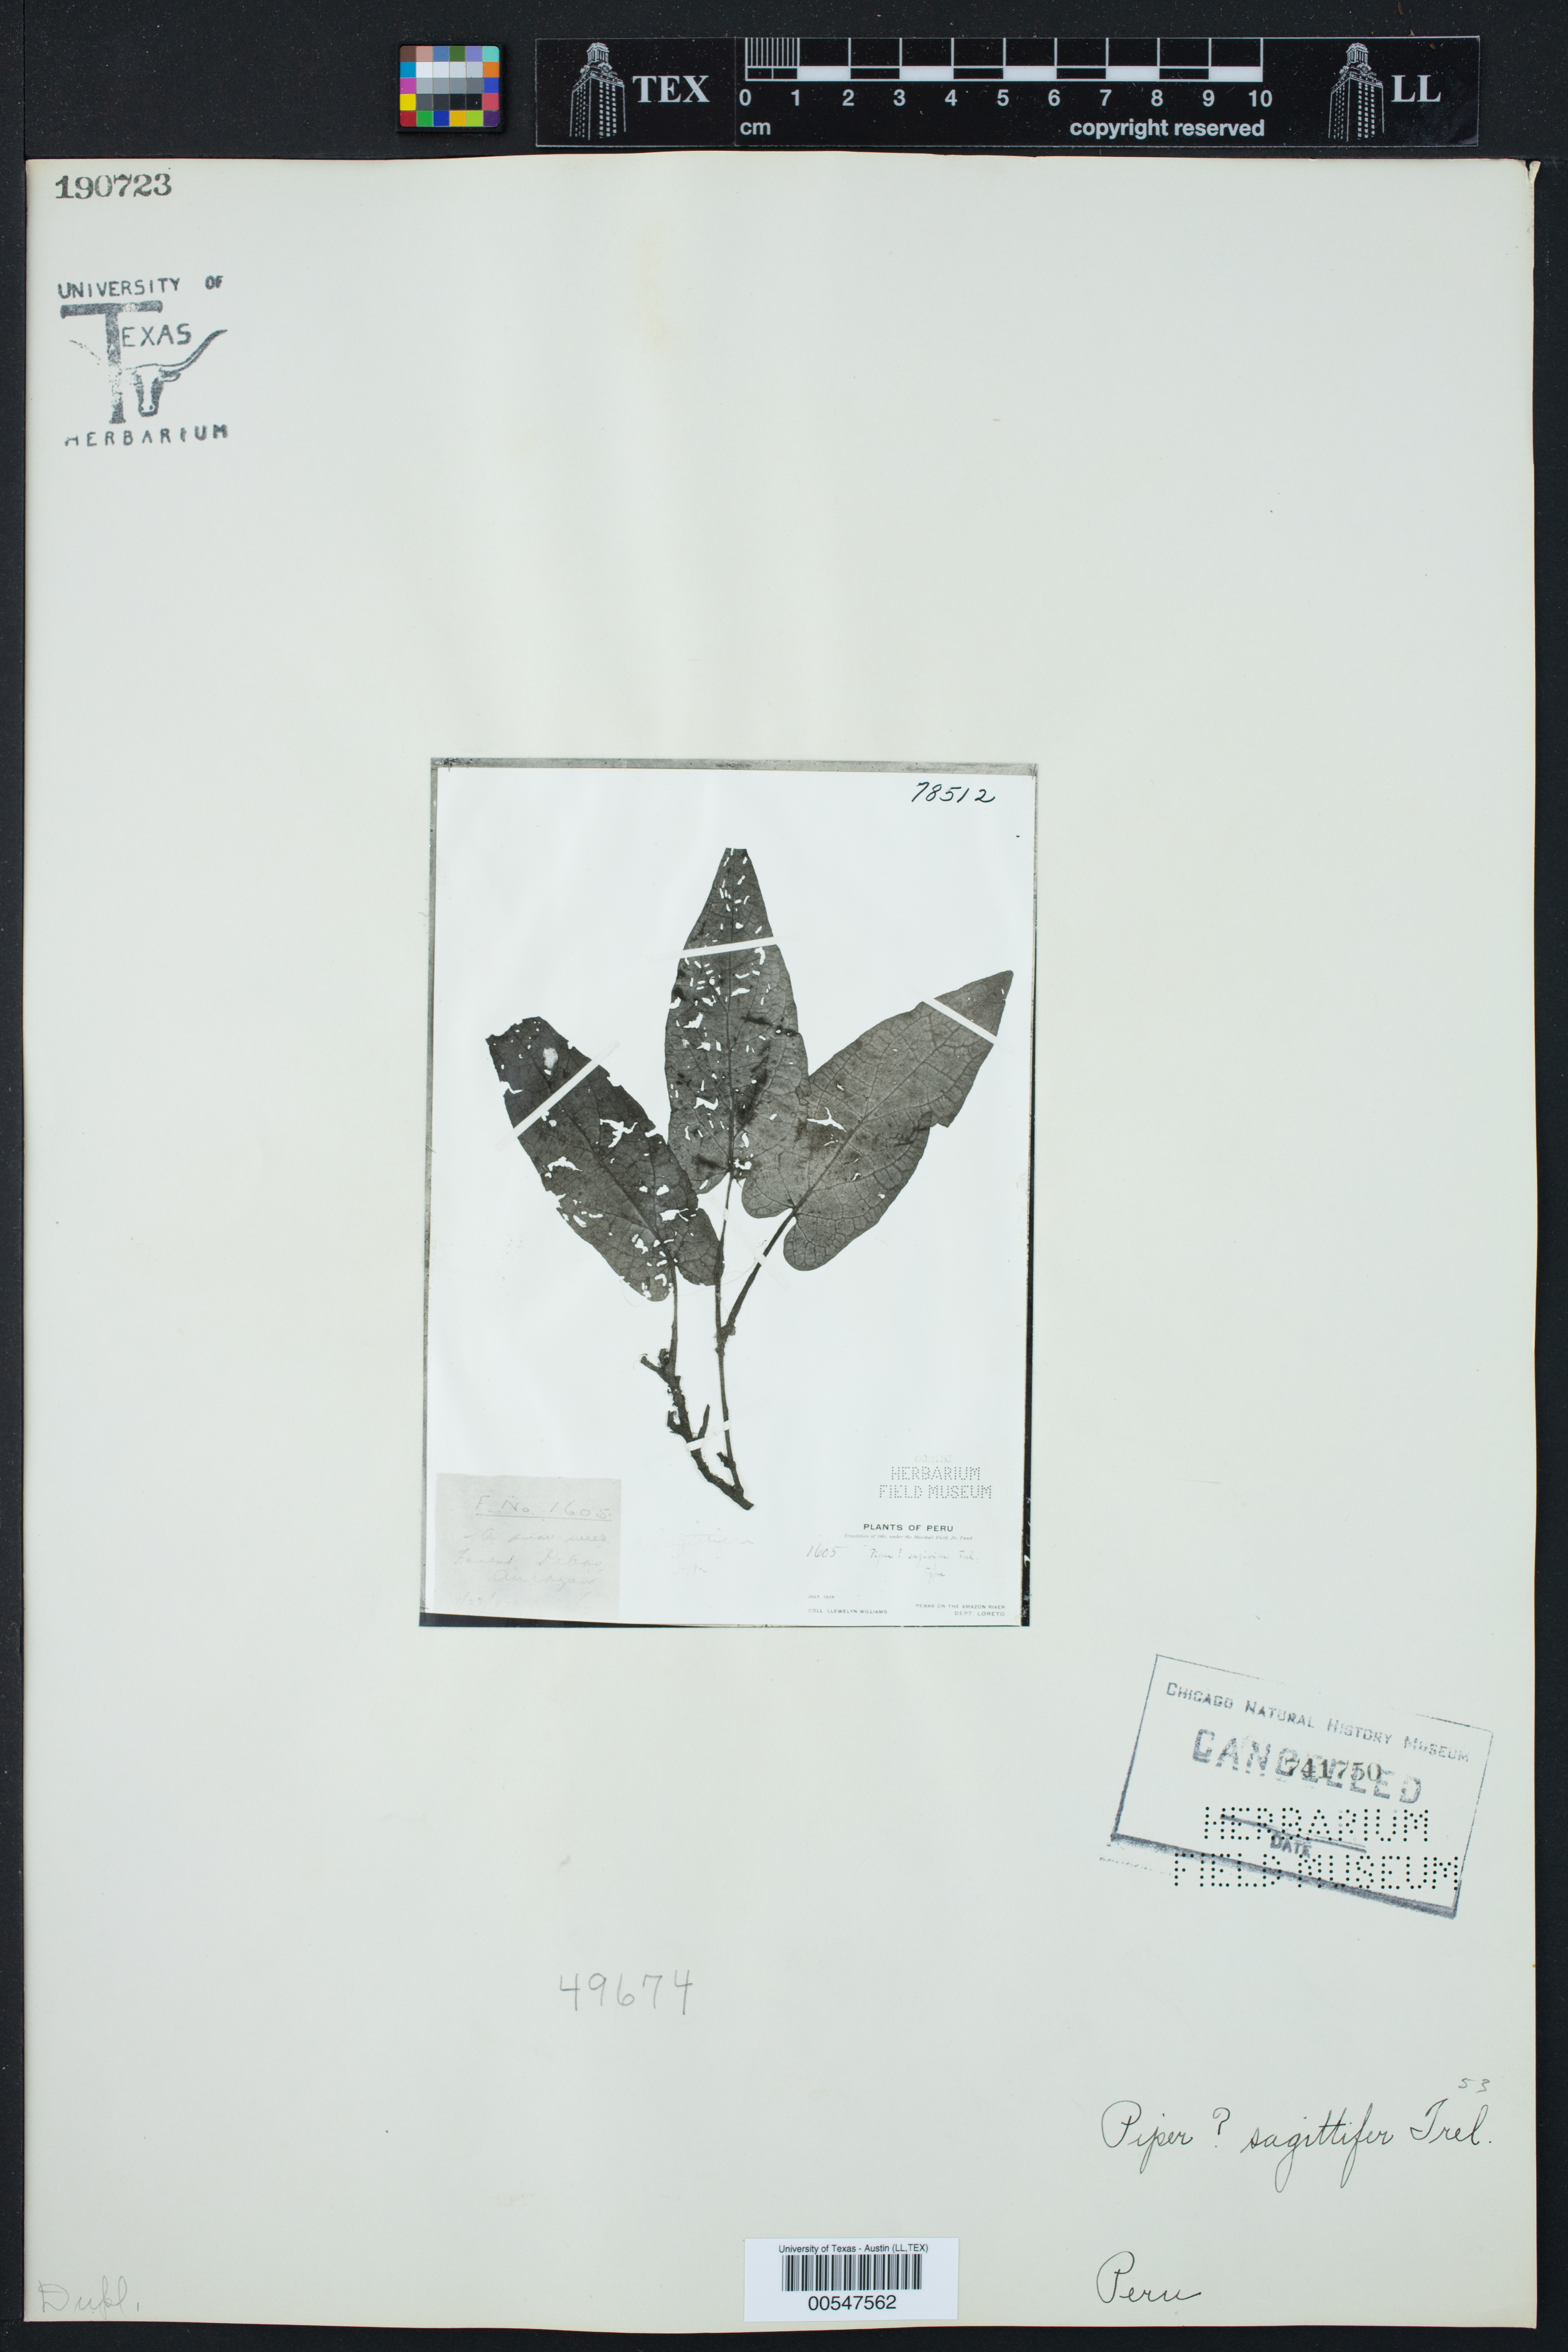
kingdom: Plantae
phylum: Tracheophyta
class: Magnoliopsida
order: Piperales
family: Piperaceae
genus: Piper
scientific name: Piper sagittifer
